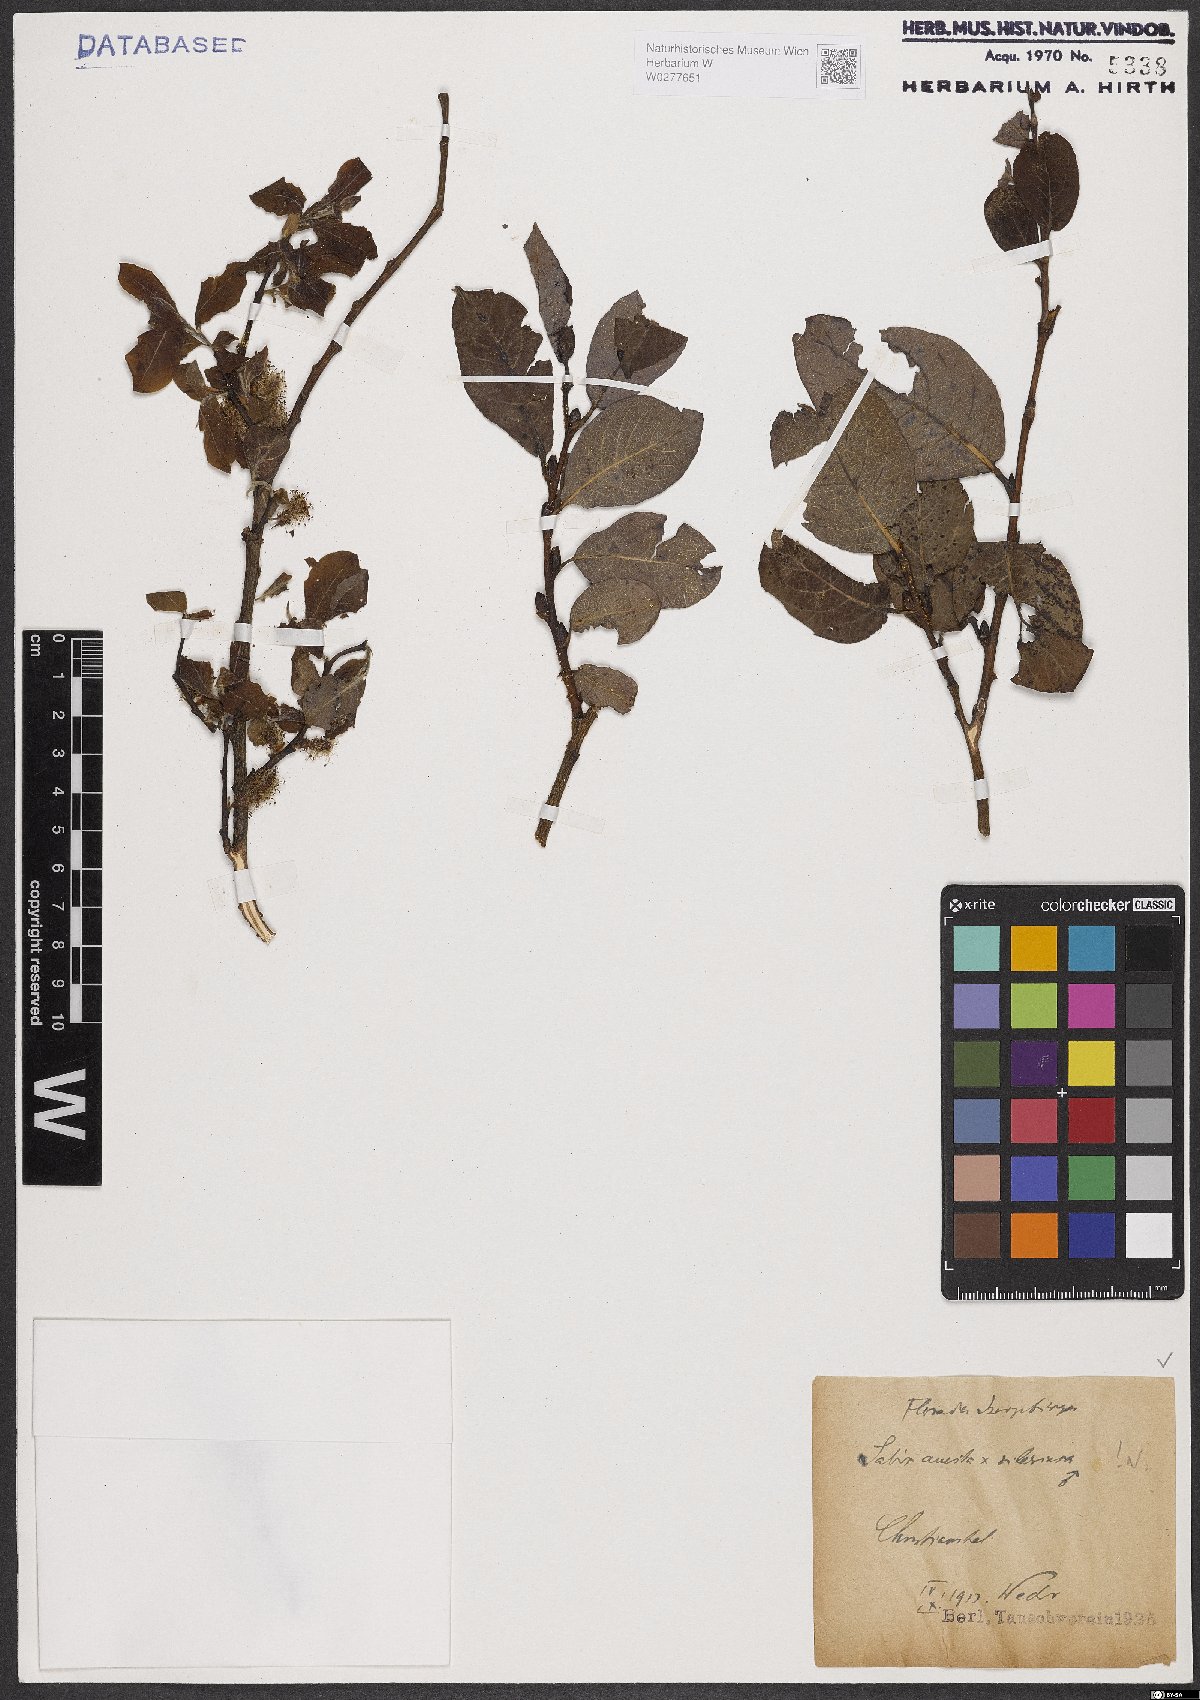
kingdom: Plantae
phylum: Tracheophyta
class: Magnoliopsida
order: Malpighiales
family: Salicaceae
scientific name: Salicaceae
